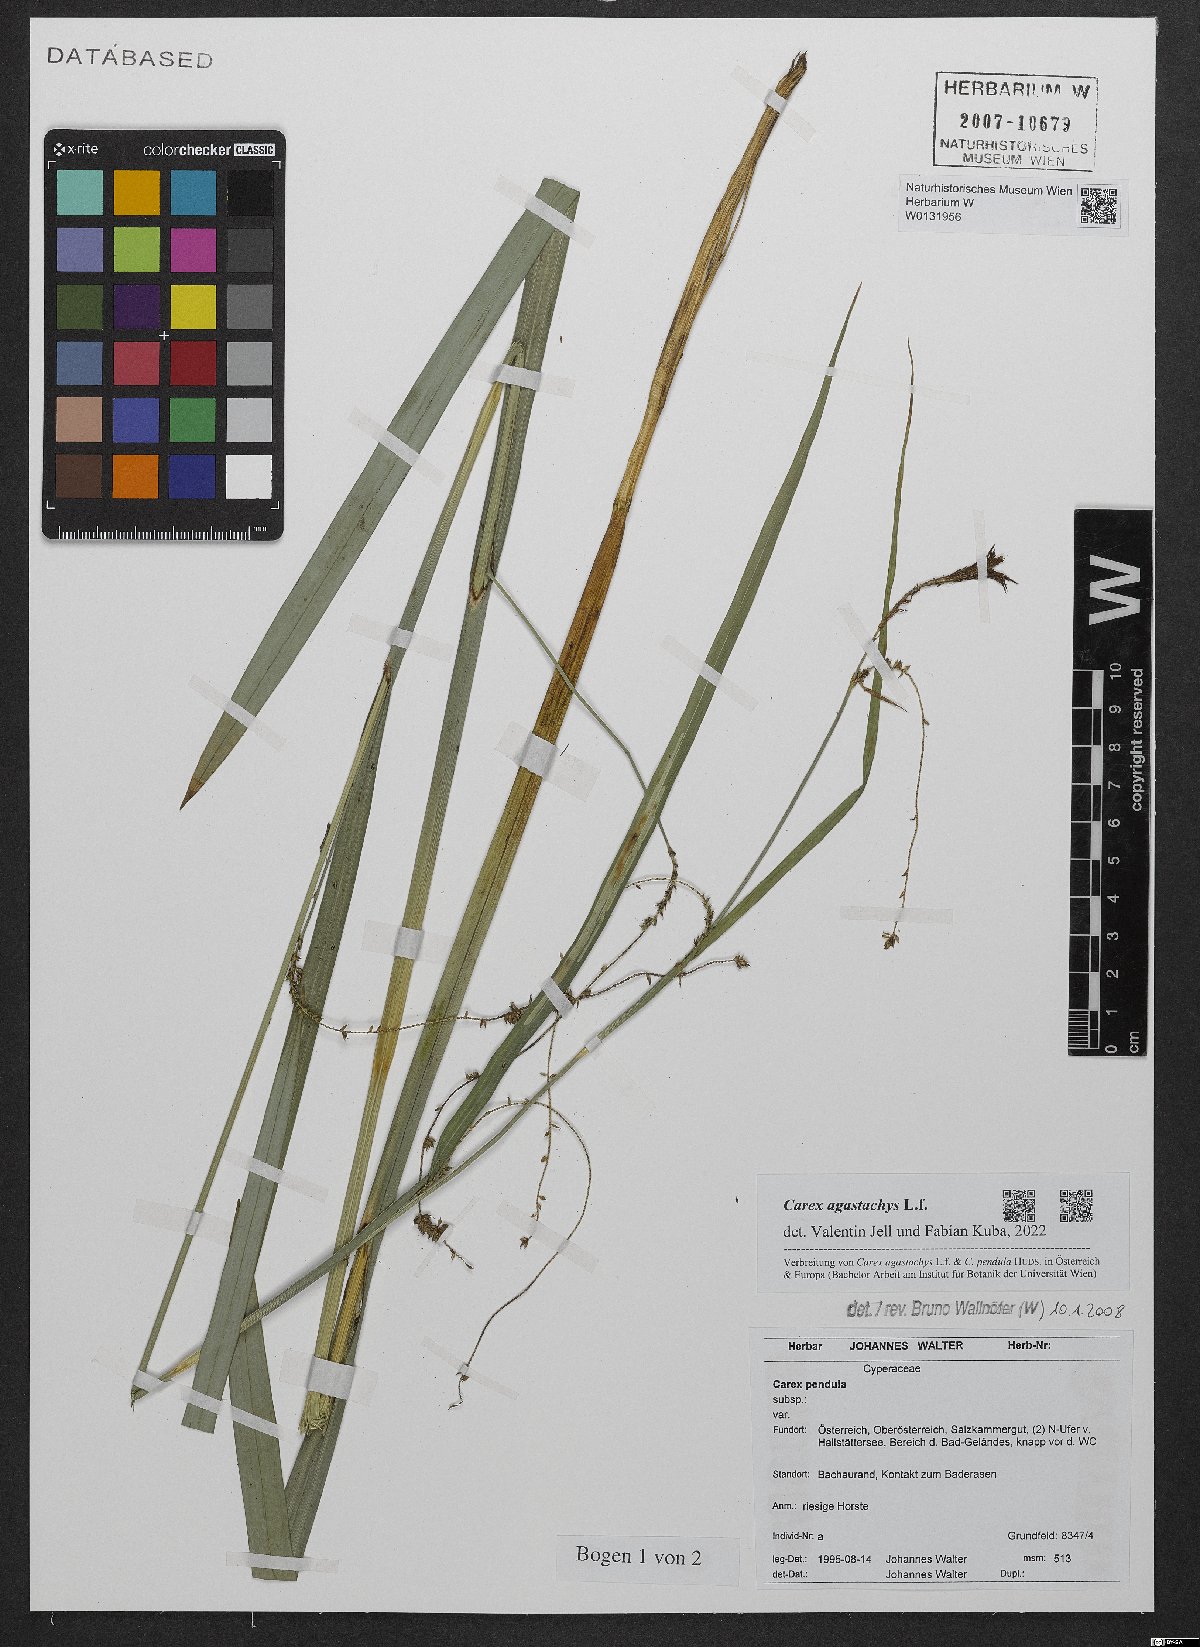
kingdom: Plantae
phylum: Tracheophyta
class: Liliopsida
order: Poales
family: Cyperaceae
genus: Carex
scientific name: Carex agastachys
